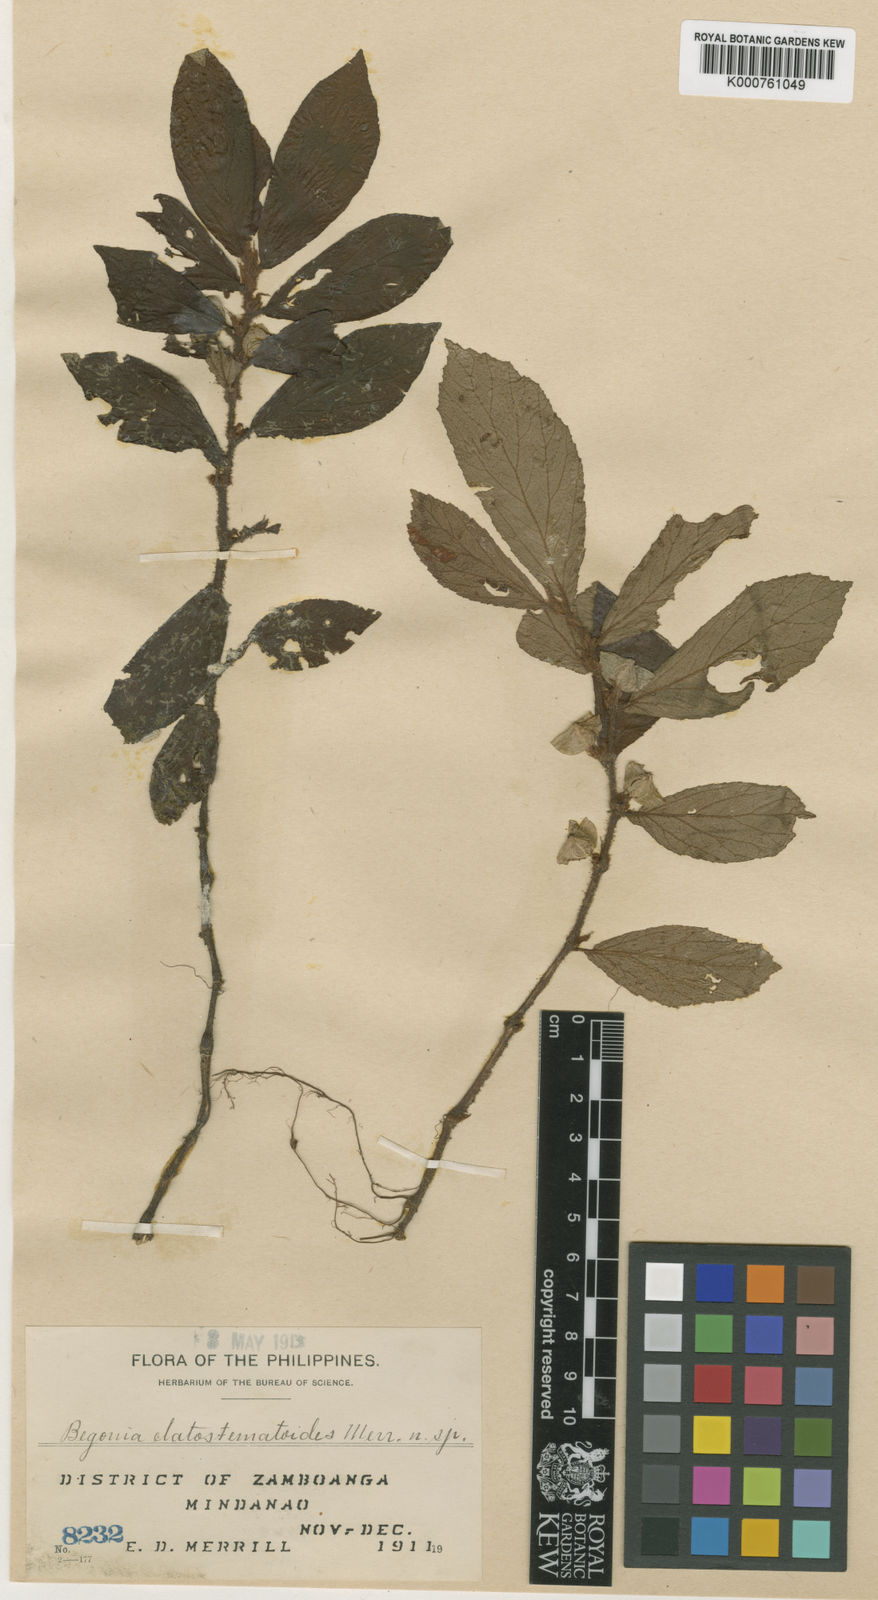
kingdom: Plantae
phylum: Tracheophyta
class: Magnoliopsida
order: Cucurbitales
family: Begoniaceae
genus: Begonia
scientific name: Begonia elatostematoides
